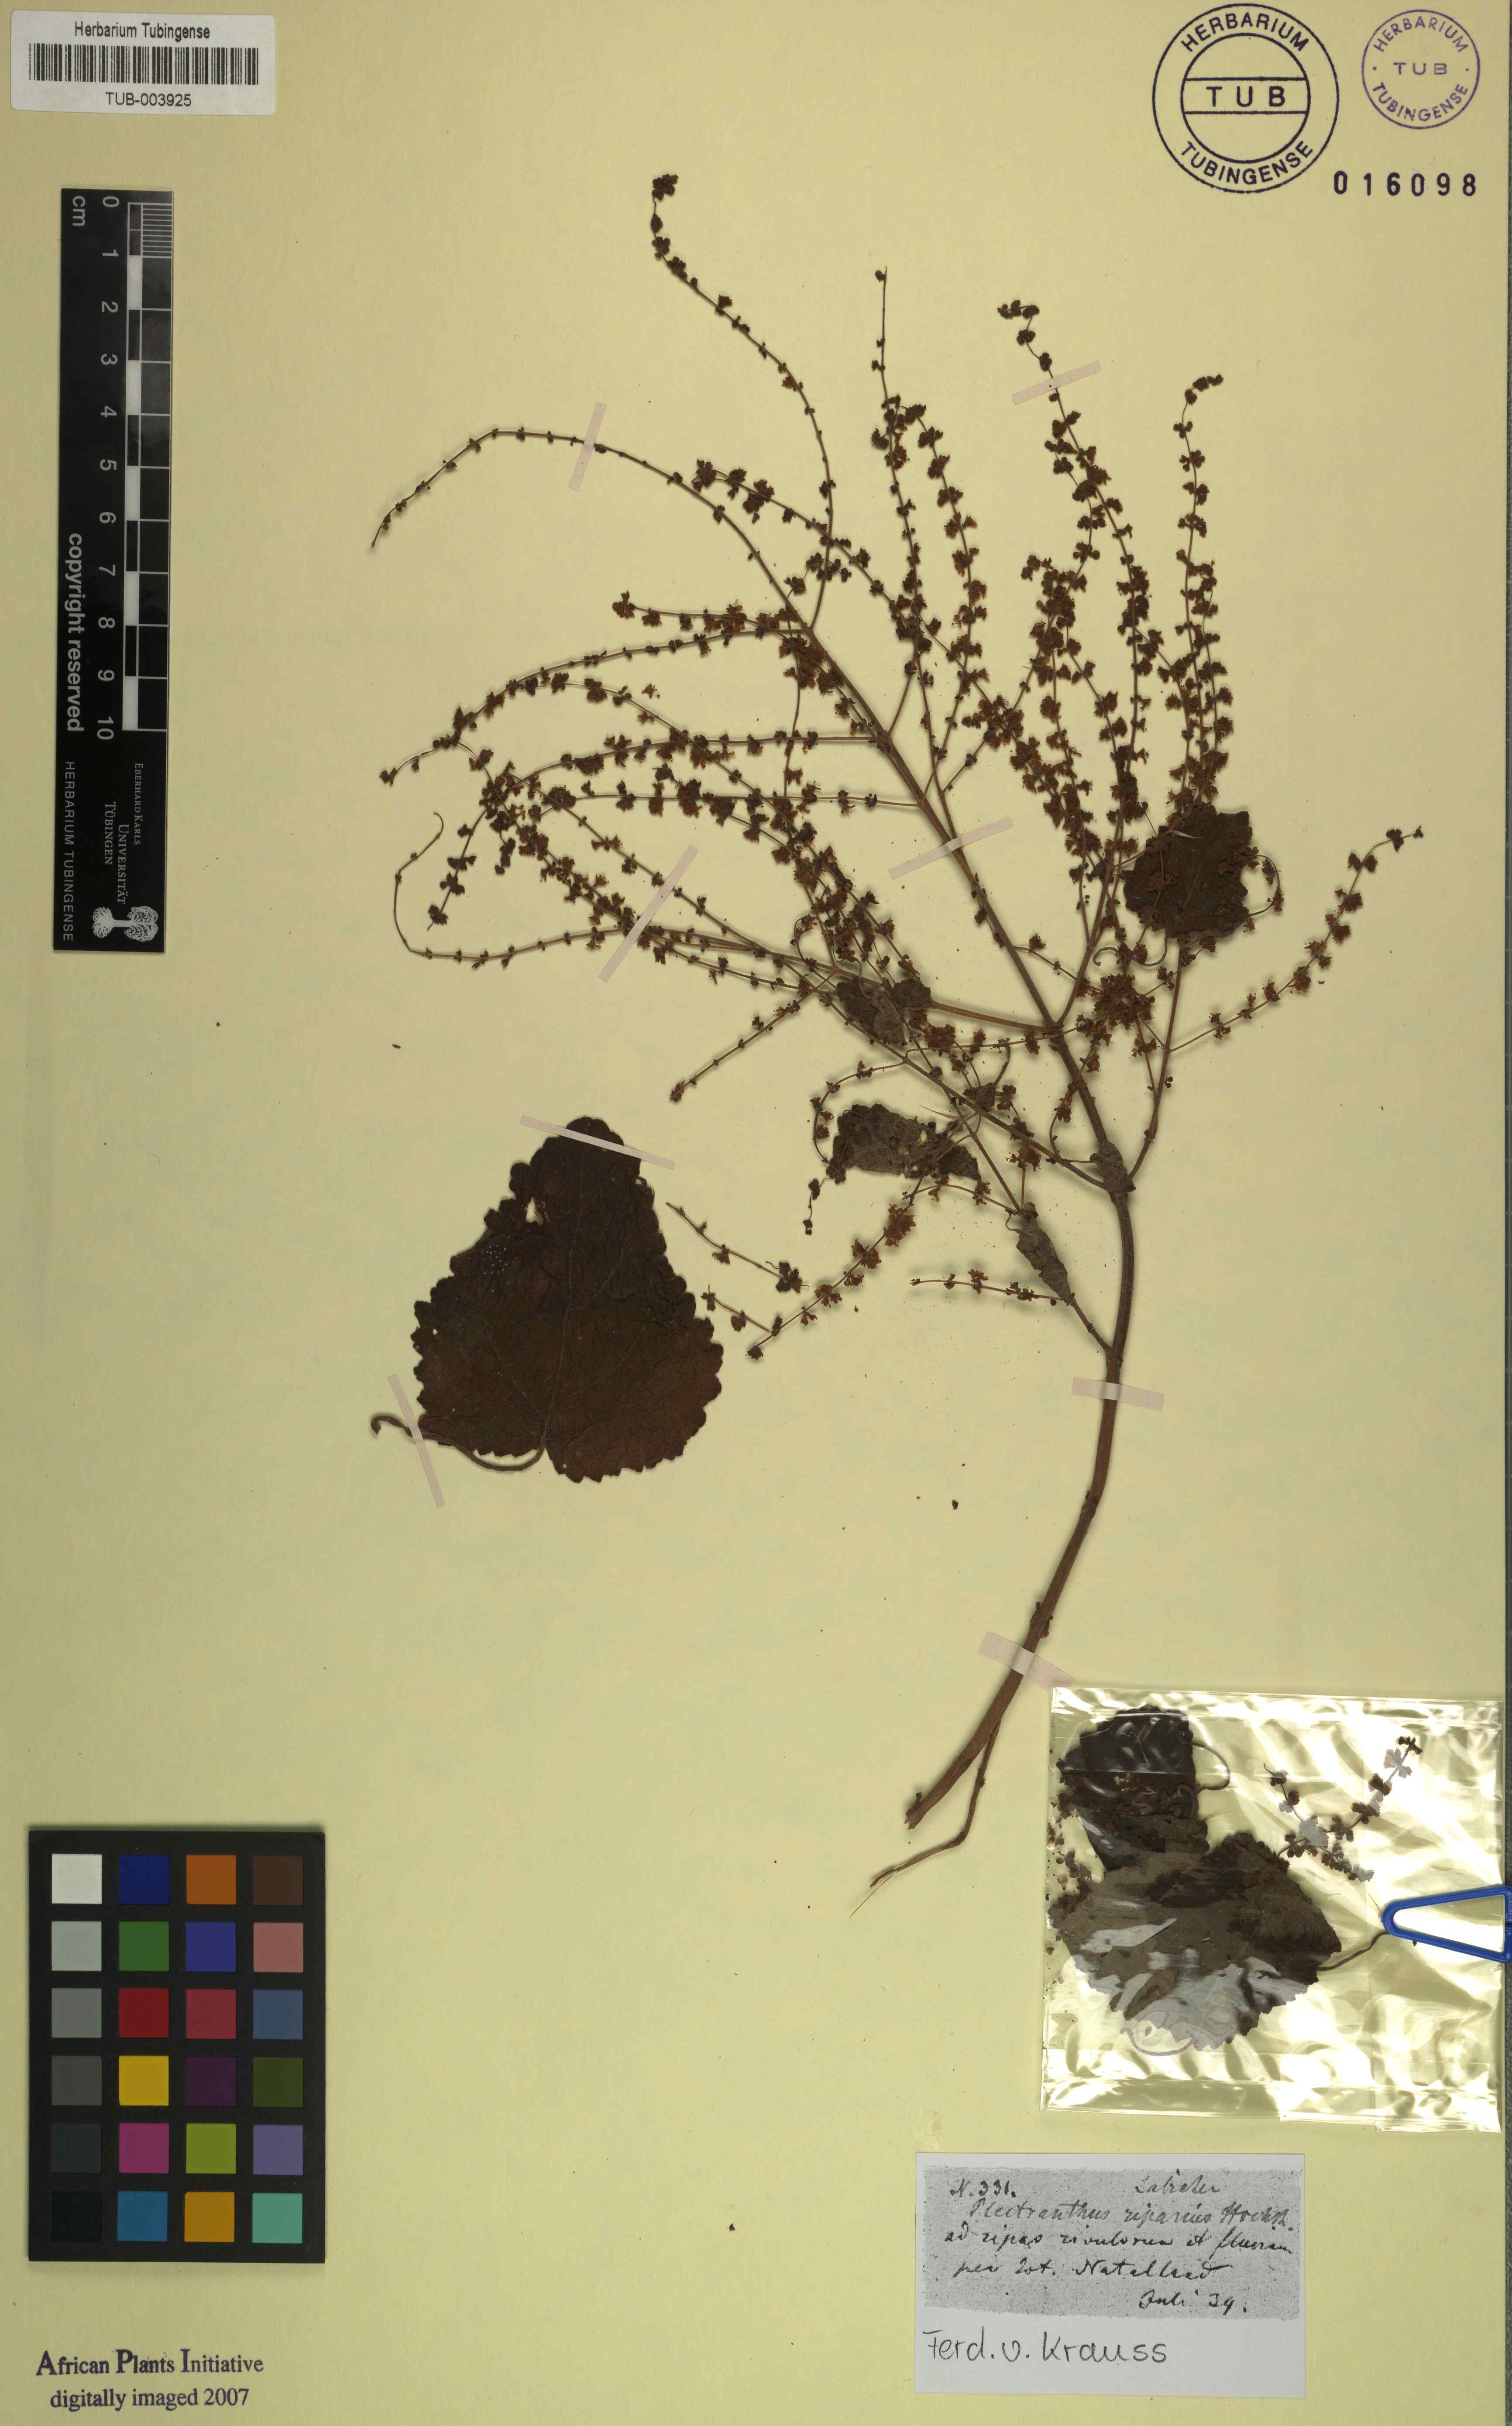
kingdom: Plantae
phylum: Tracheophyta
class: Magnoliopsida
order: Lamiales
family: Lamiaceae
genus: Tetradenia
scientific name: Tetradenia riparia
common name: Gingerbush
